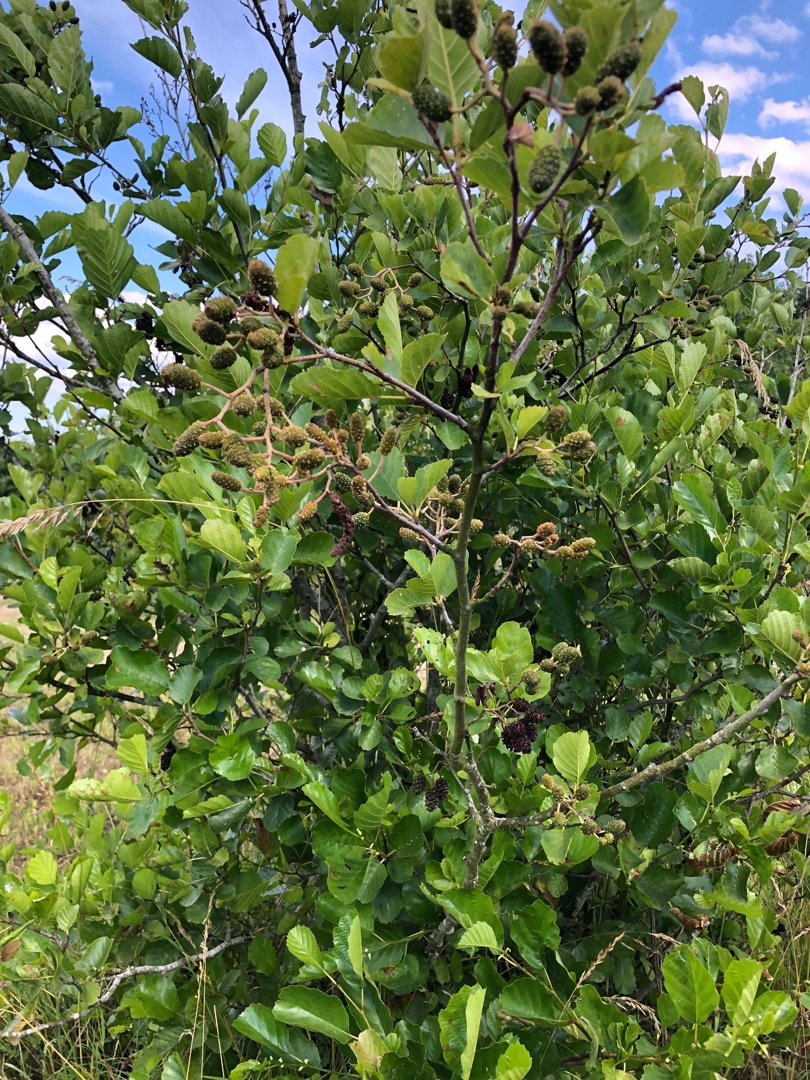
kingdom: Plantae
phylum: Tracheophyta
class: Magnoliopsida
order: Fagales
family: Betulaceae
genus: Alnus
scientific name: Alnus glutinosa
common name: Rød-el
